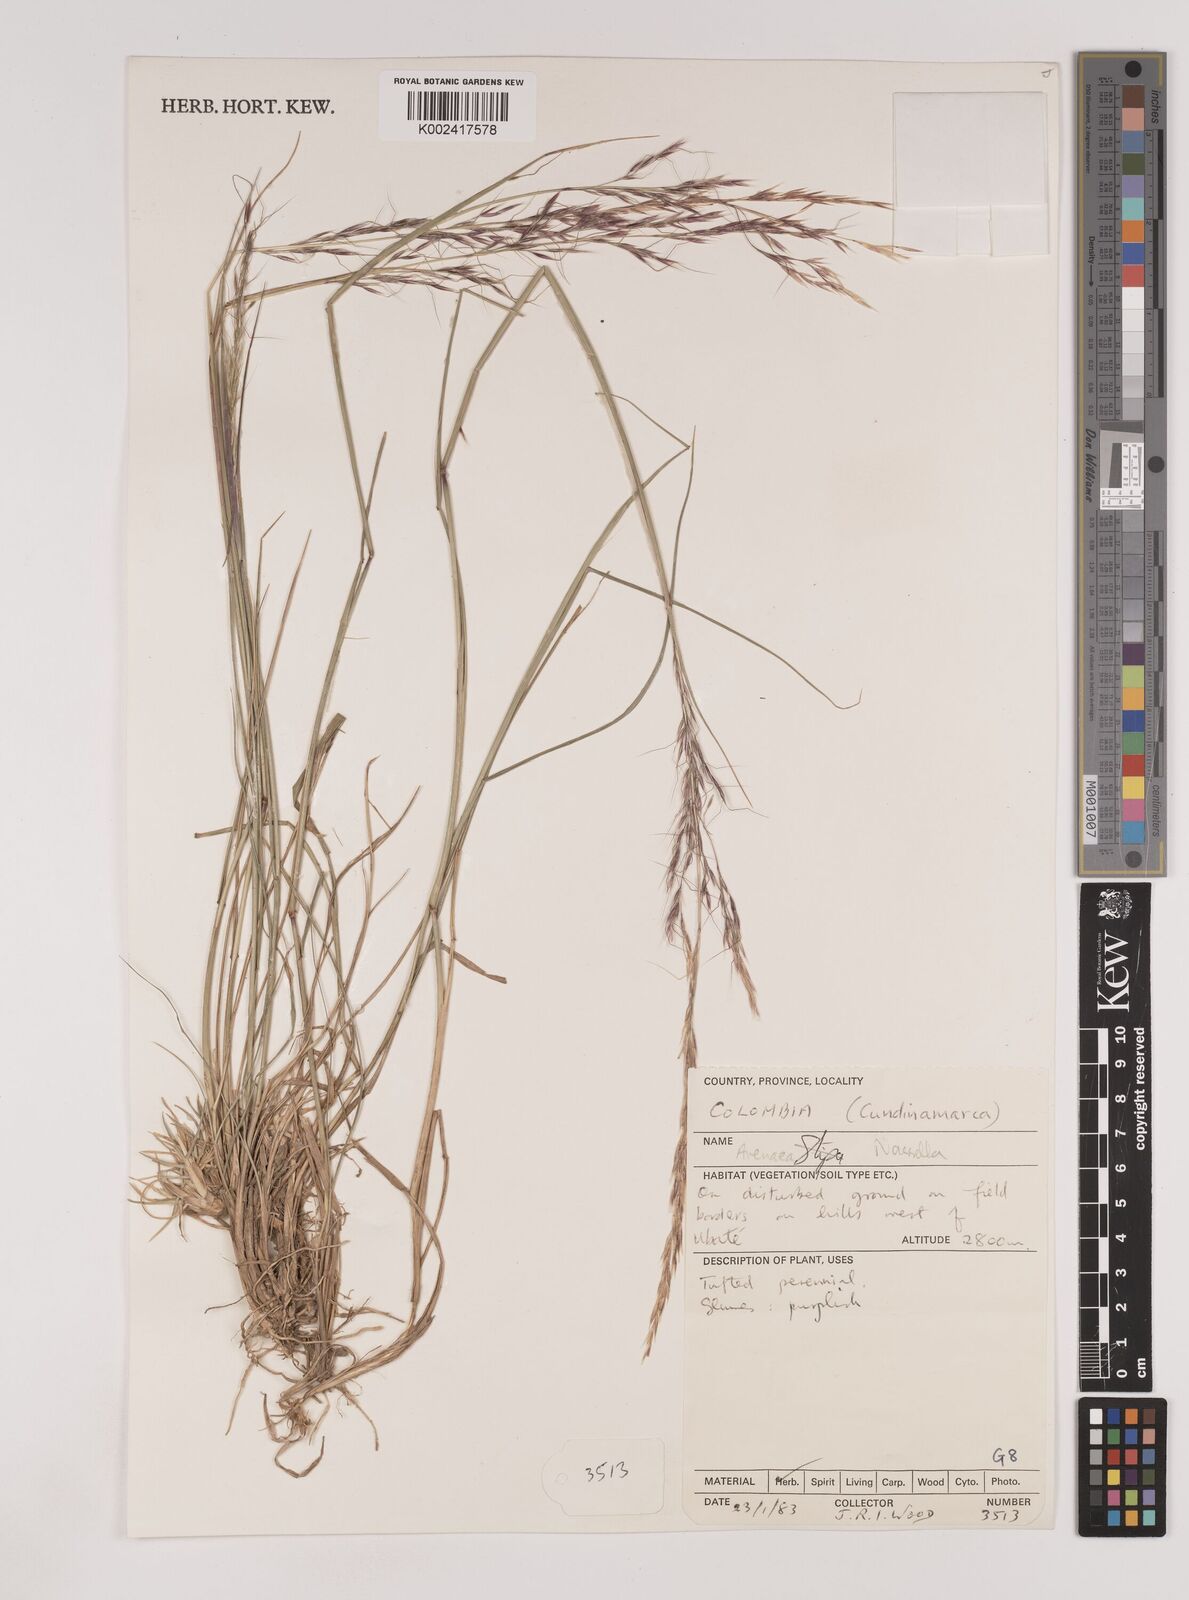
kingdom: Plantae
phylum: Tracheophyta
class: Liliopsida
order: Poales
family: Poaceae
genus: Nassella
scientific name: Nassella
